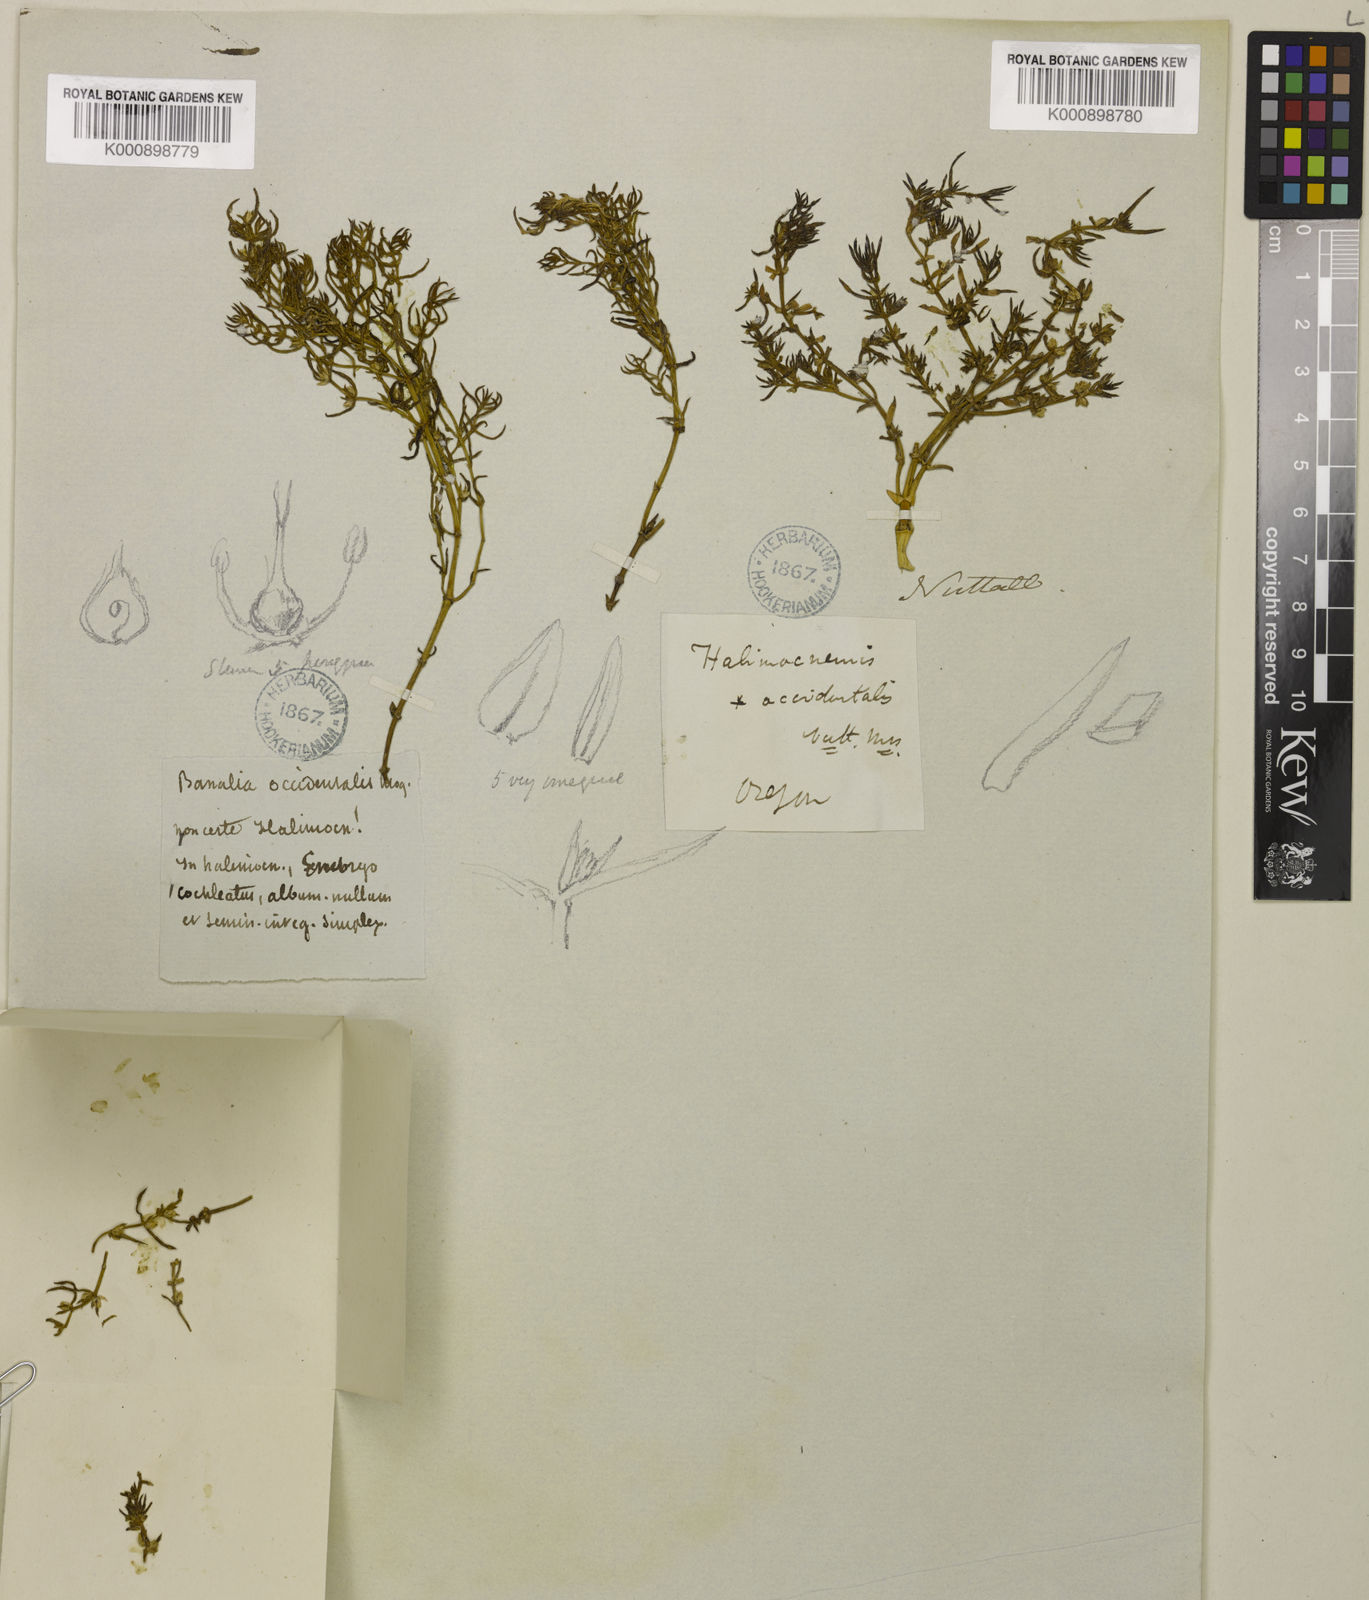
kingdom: Plantae
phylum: Tracheophyta
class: Magnoliopsida
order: Caryophyllales
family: Amaranthaceae
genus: Nitrophila
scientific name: Nitrophila occidentalis
